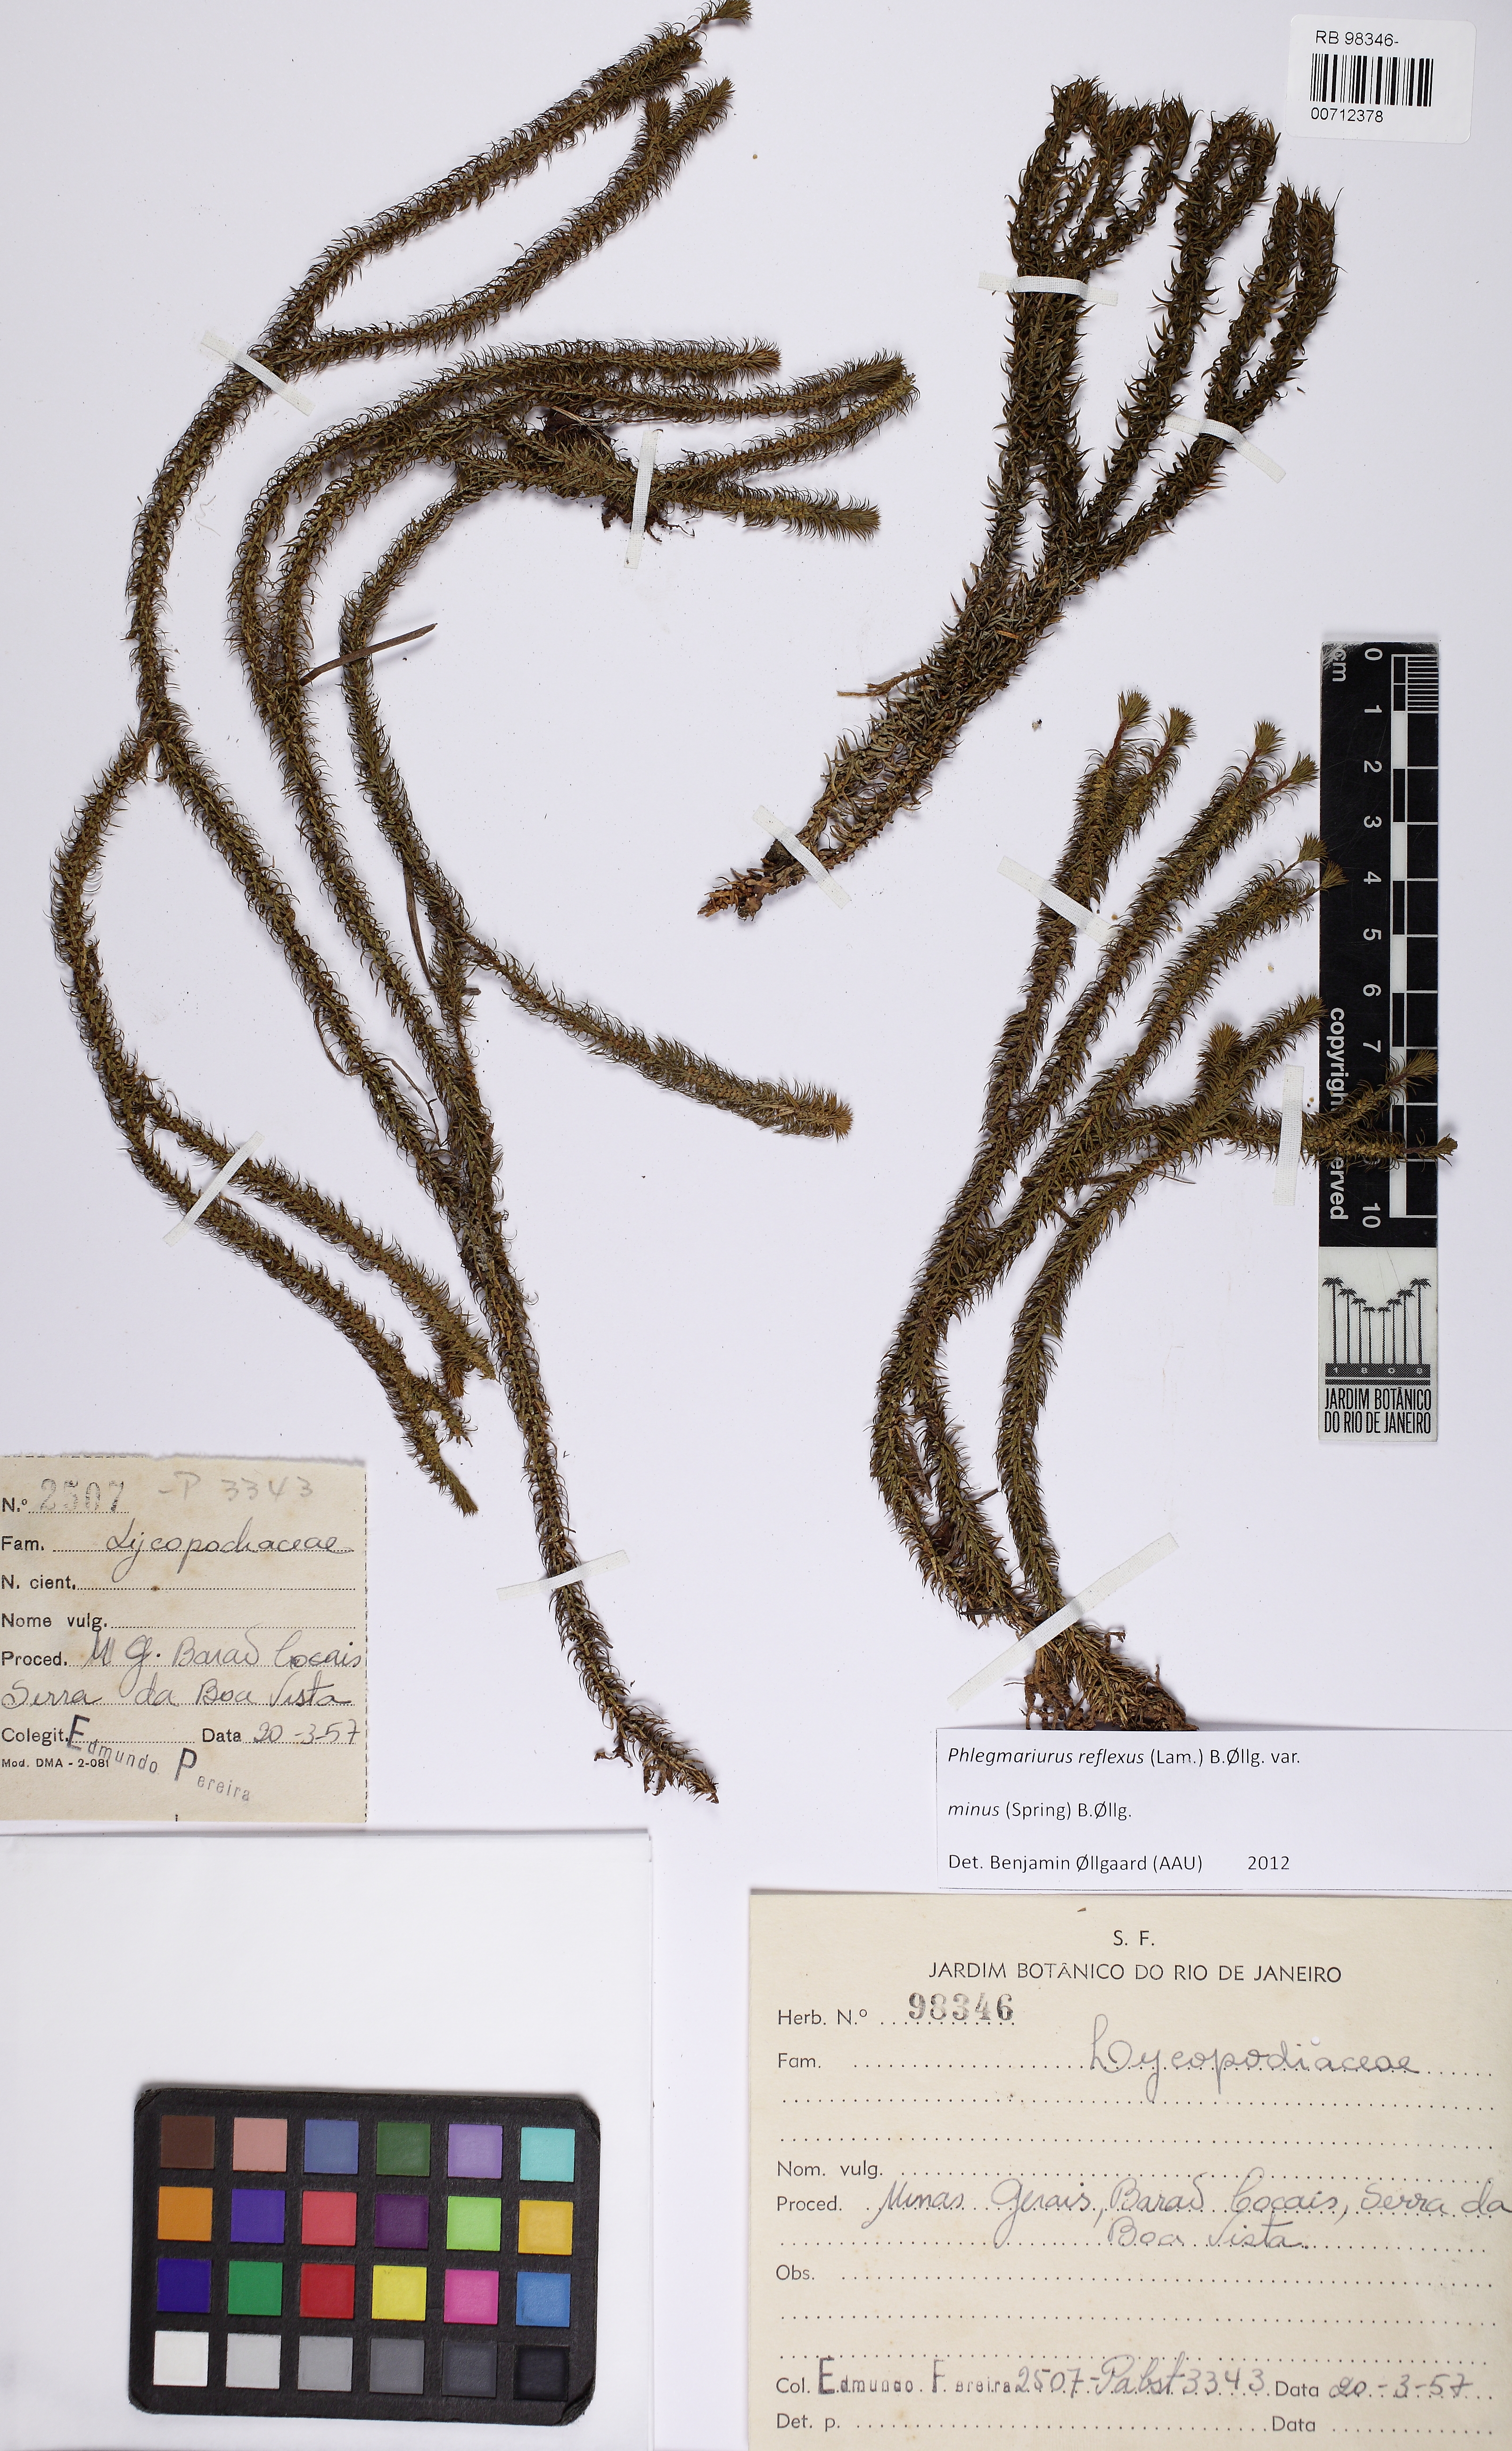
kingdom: Plantae
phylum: Tracheophyta
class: Lycopodiopsida
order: Lycopodiales
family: Lycopodiaceae
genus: Phlegmariurus
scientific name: Phlegmariurus reflexus
